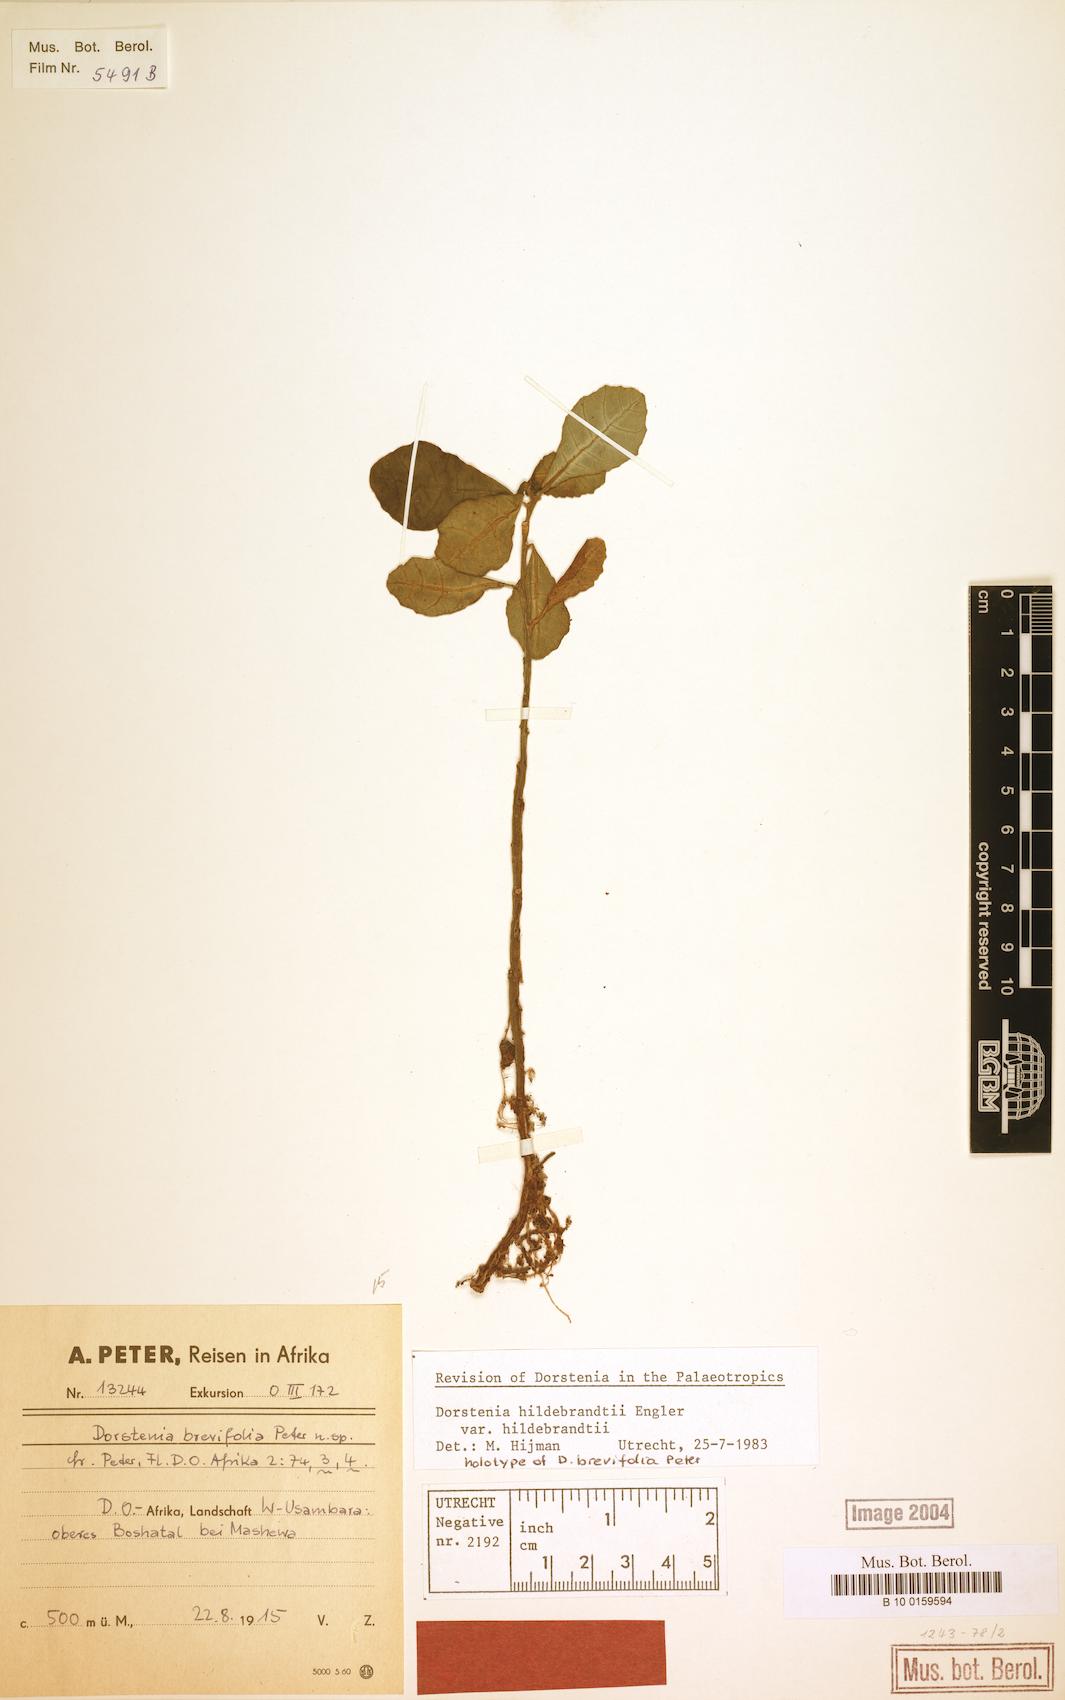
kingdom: Plantae
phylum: Tracheophyta
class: Magnoliopsida
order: Rosales
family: Moraceae
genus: Dorstenia
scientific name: Dorstenia hildebrandtii
